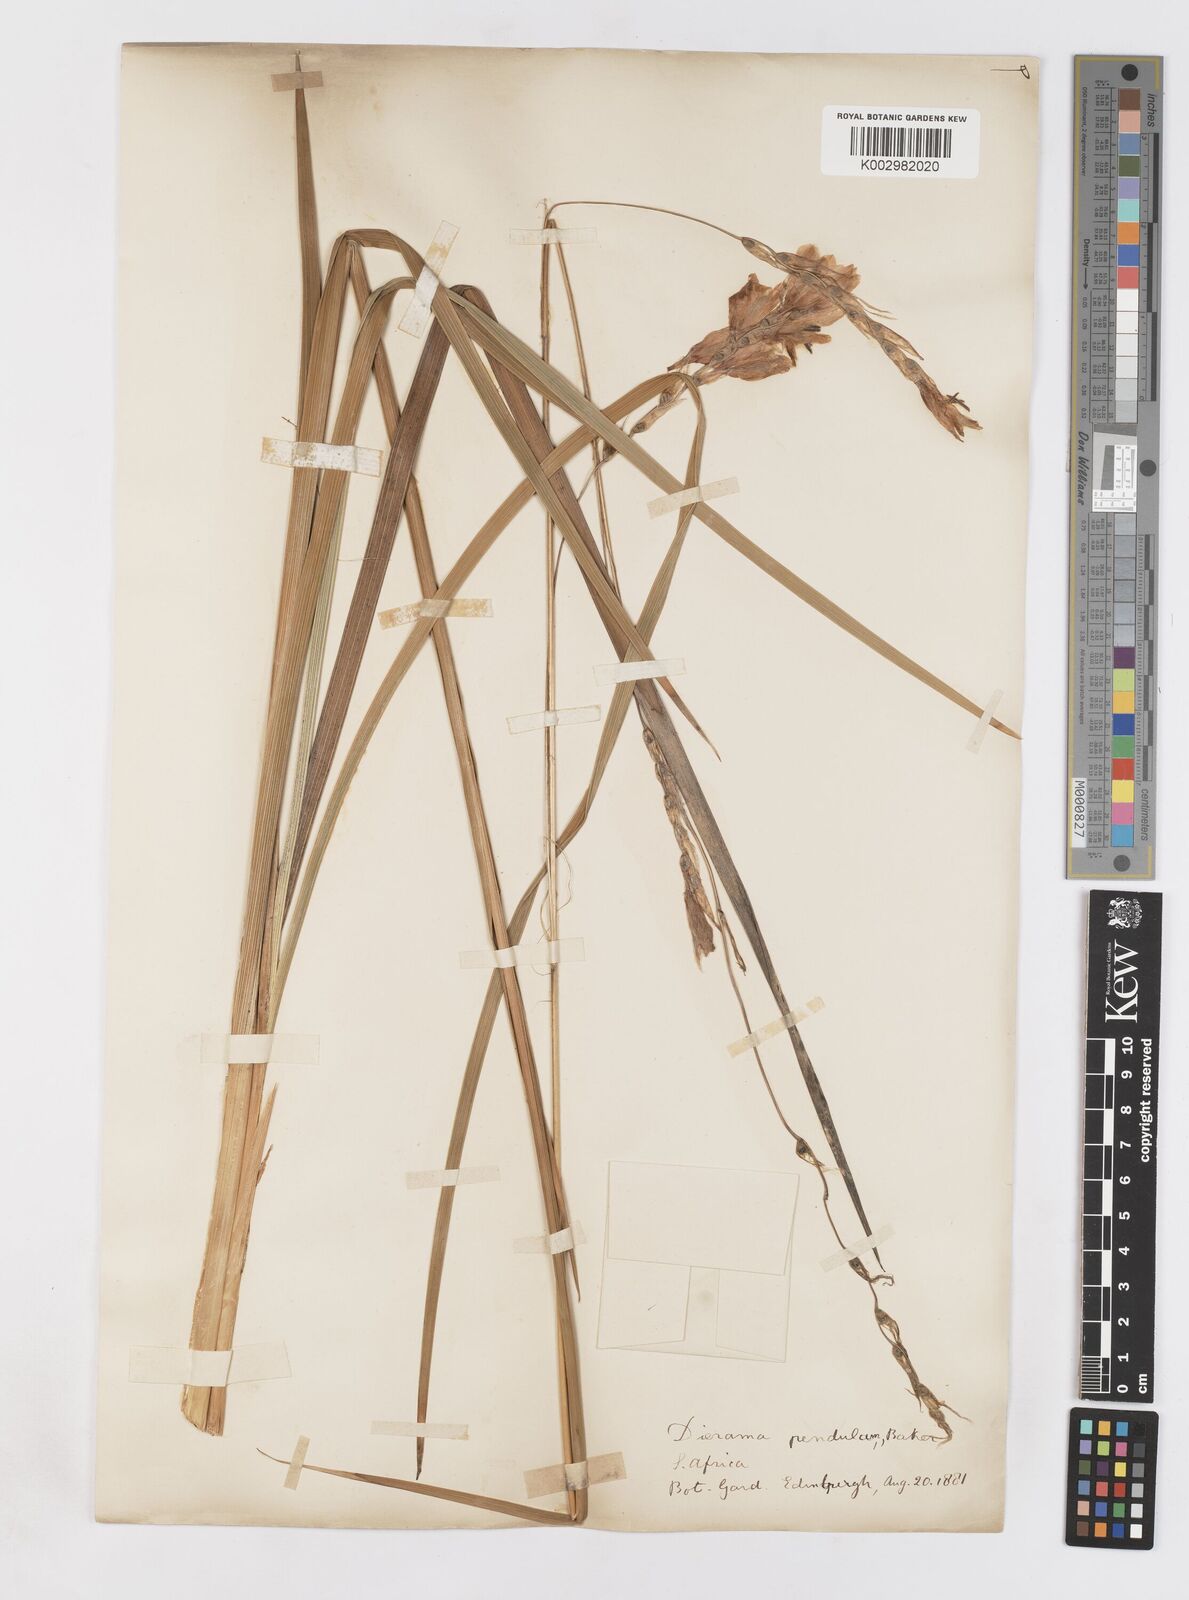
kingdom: Plantae
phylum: Tracheophyta
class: Liliopsida
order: Asparagales
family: Iridaceae
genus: Dierama
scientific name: Dierama pendulum
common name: Grassy-bell
